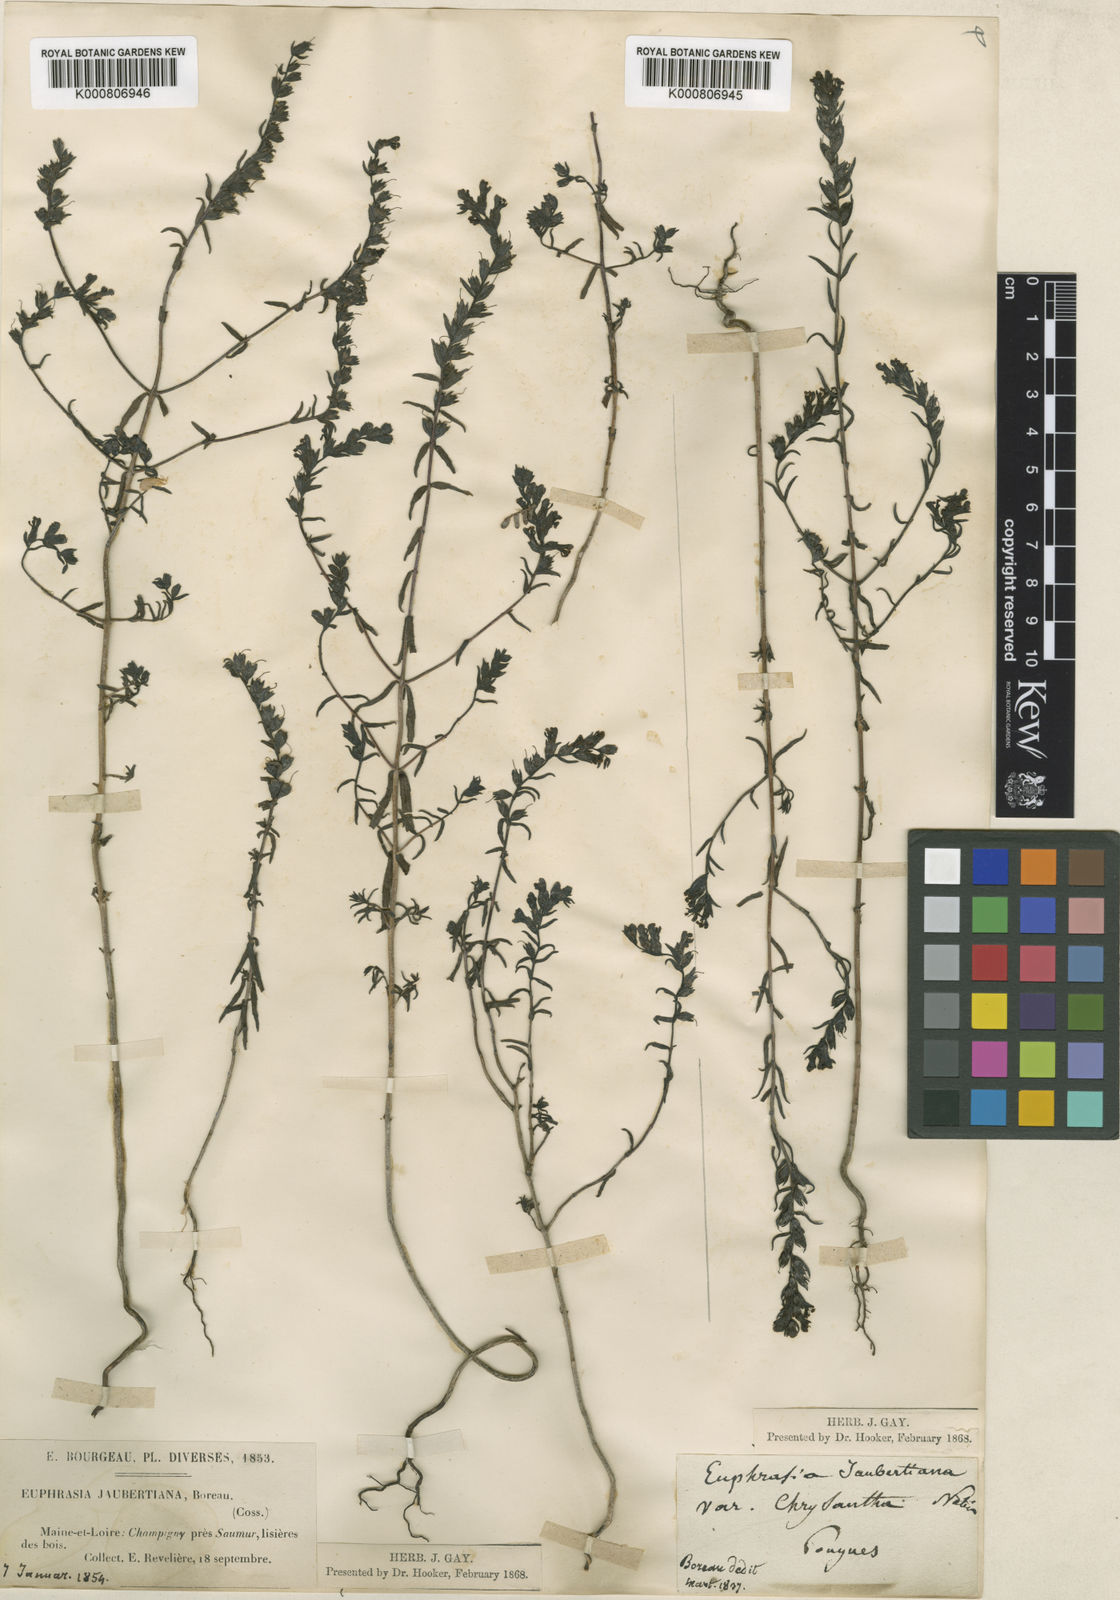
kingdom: Plantae
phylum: Tracheophyta
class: Magnoliopsida
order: Lamiales
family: Orobanchaceae
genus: Odontites
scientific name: Odontites
